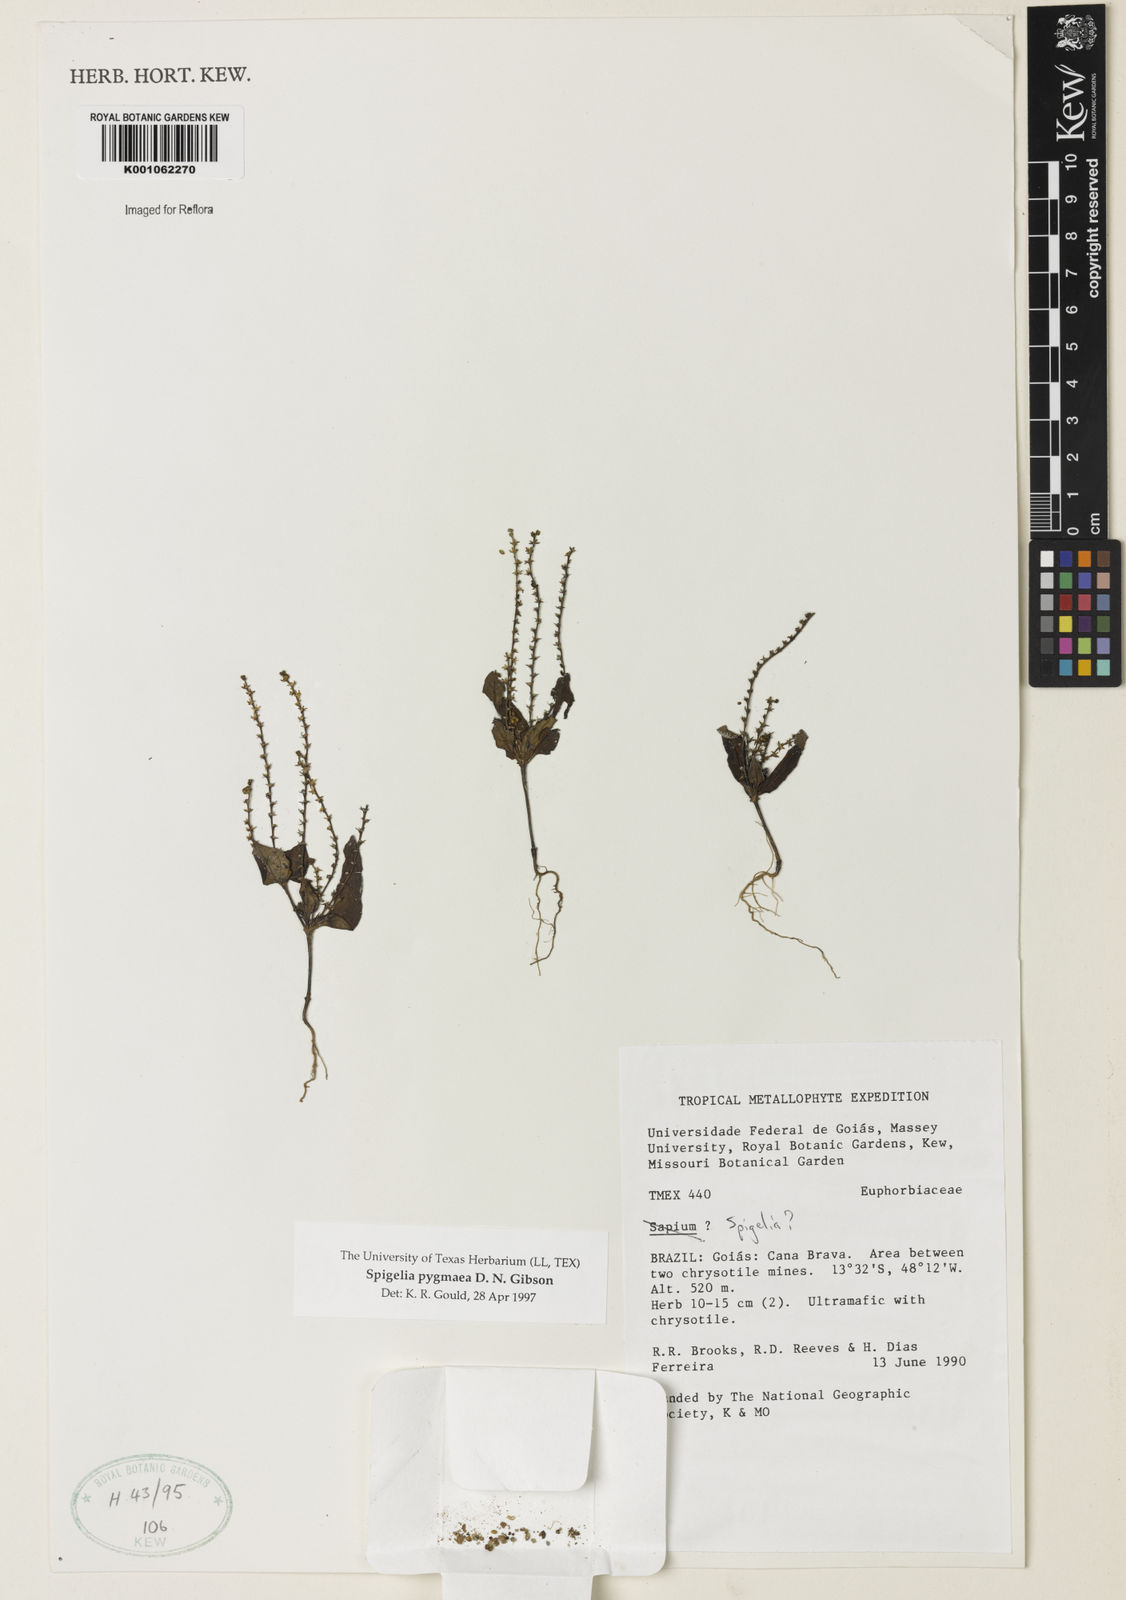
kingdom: Plantae
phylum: Tracheophyta
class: Magnoliopsida
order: Gentianales
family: Loganiaceae
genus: Spigelia
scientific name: Spigelia
